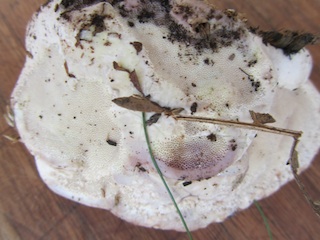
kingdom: Fungi
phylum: Basidiomycota
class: Agaricomycetes
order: Polyporales
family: Fomitopsidaceae
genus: Fomitopsis
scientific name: Fomitopsis pinicola
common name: randbæltet hovporesvamp
